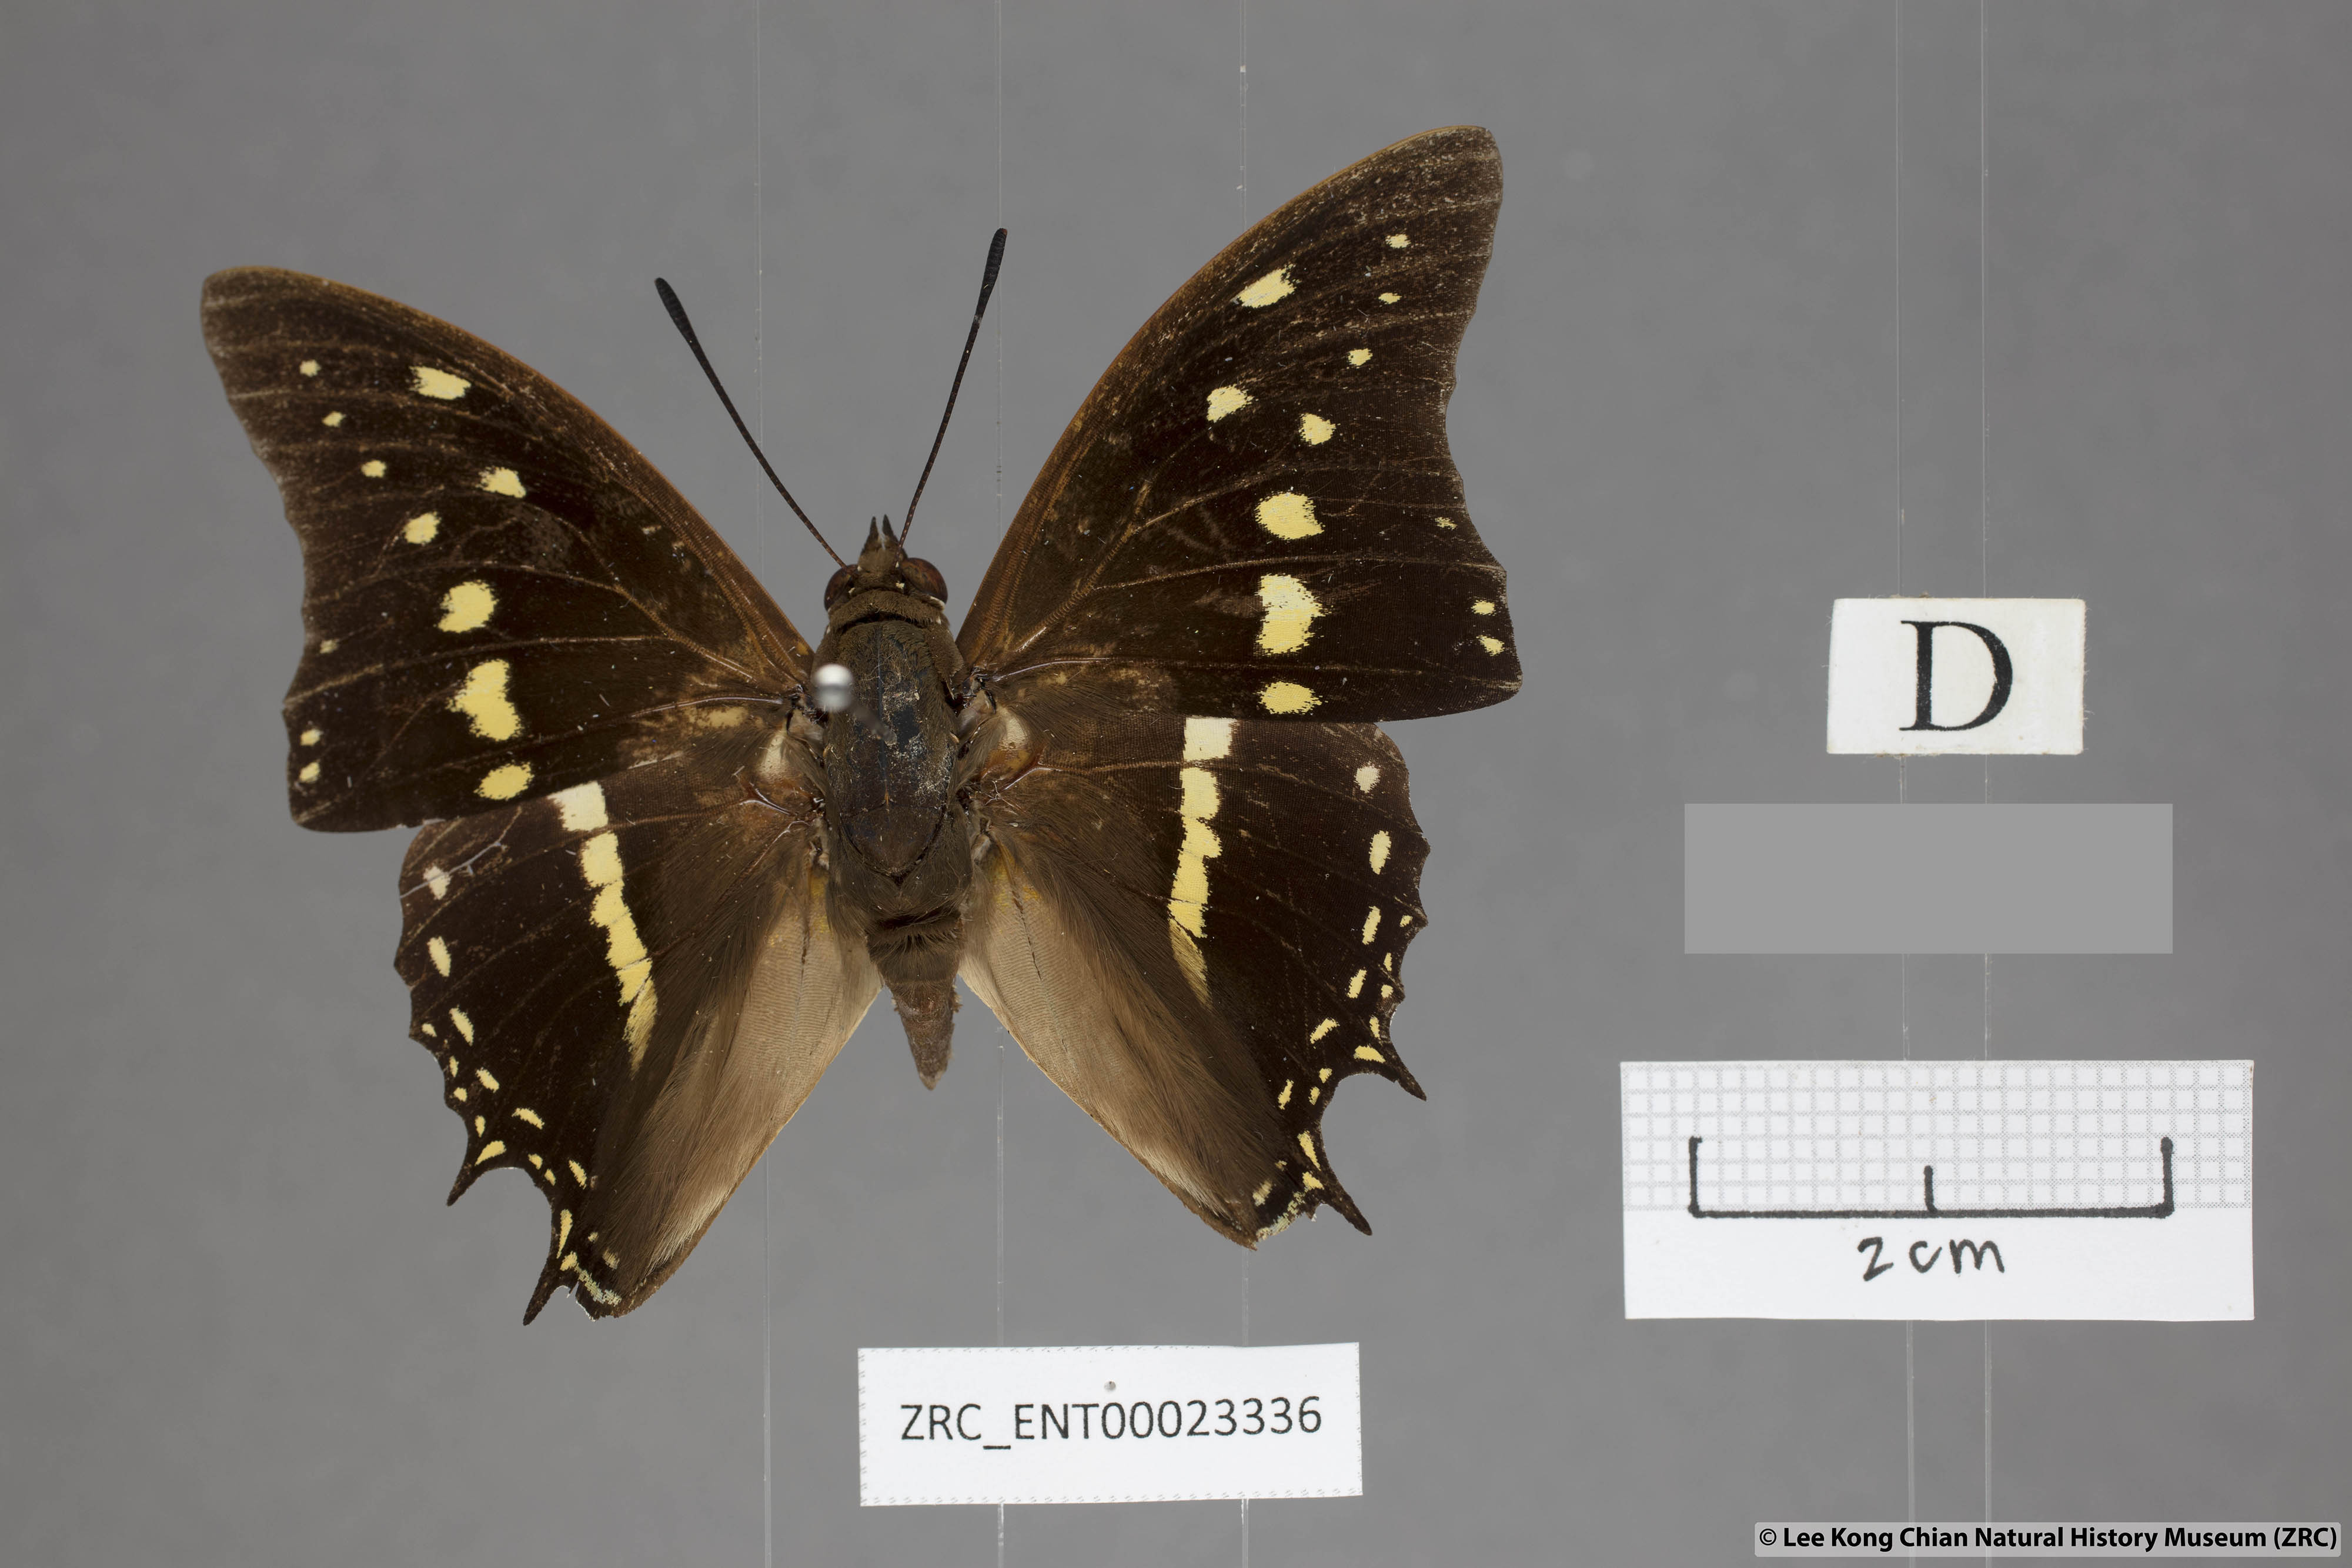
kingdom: Animalia
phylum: Arthropoda
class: Insecta
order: Lepidoptera
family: Nymphalidae
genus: Charaxes
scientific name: Charaxes solon
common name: Black rajah
